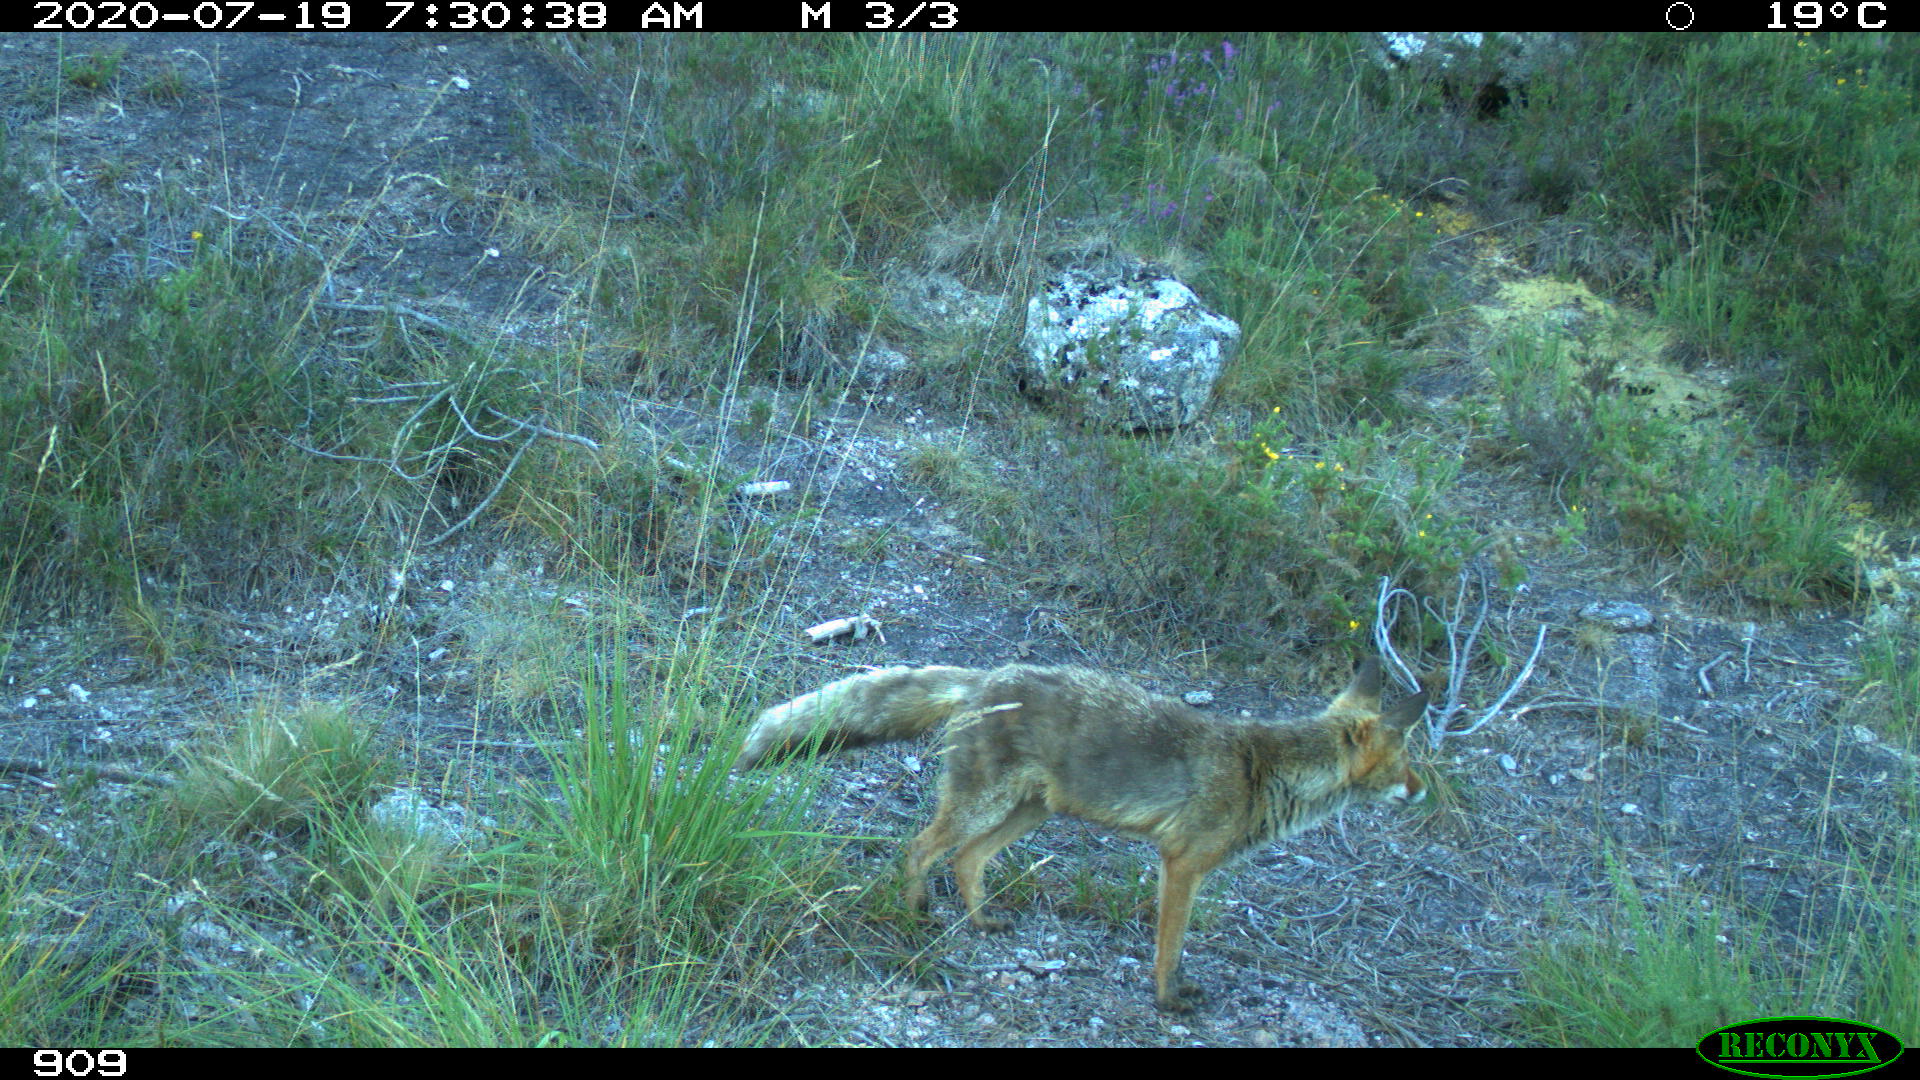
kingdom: Animalia
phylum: Chordata
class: Mammalia
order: Carnivora
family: Canidae
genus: Vulpes
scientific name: Vulpes vulpes
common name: Red fox
